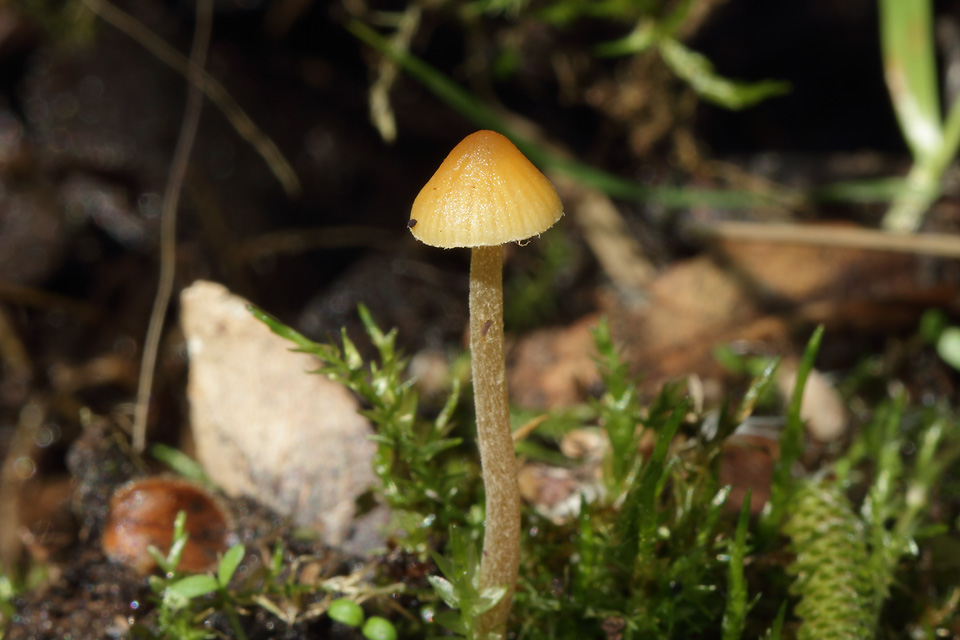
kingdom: Fungi
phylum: Basidiomycota
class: Agaricomycetes
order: Agaricales
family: Hymenogastraceae
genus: Galerina
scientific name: Galerina clavata
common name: kær-hjelmhat
